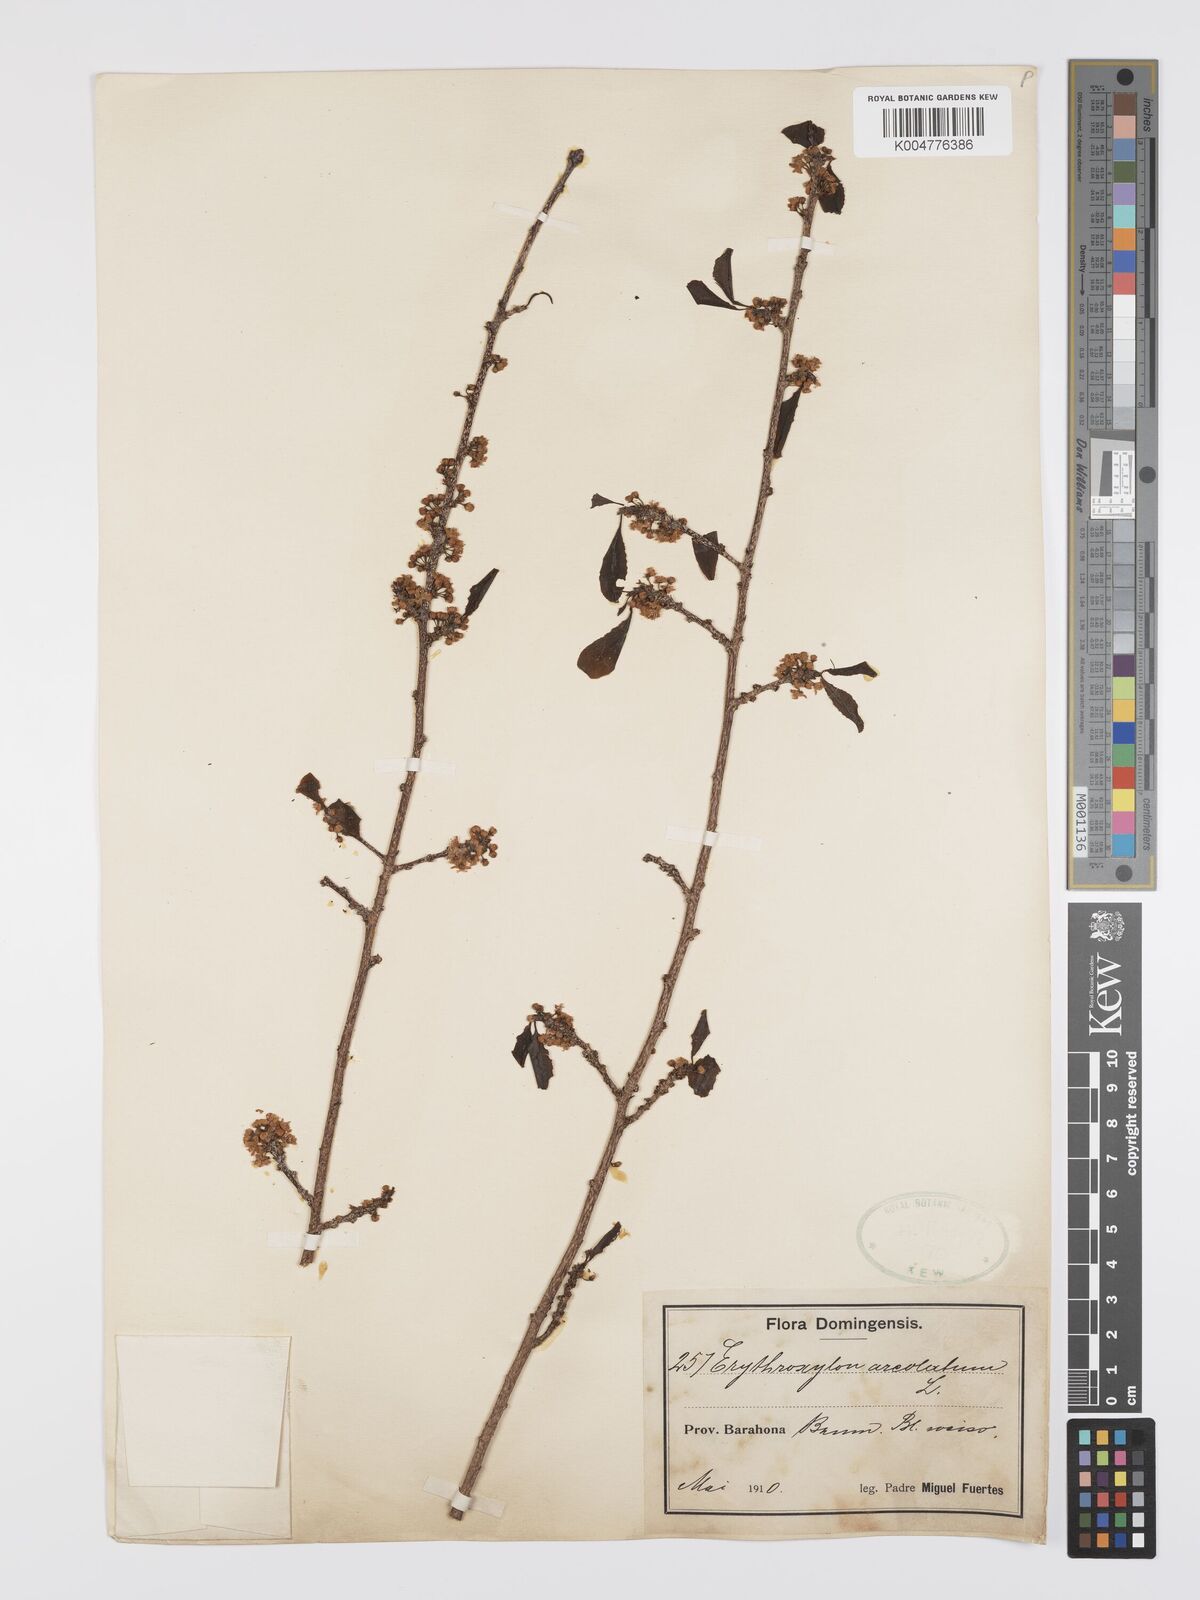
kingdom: Plantae
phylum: Tracheophyta
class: Magnoliopsida
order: Malpighiales
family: Erythroxylaceae
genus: Erythroxylum
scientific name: Erythroxylum areolatum
